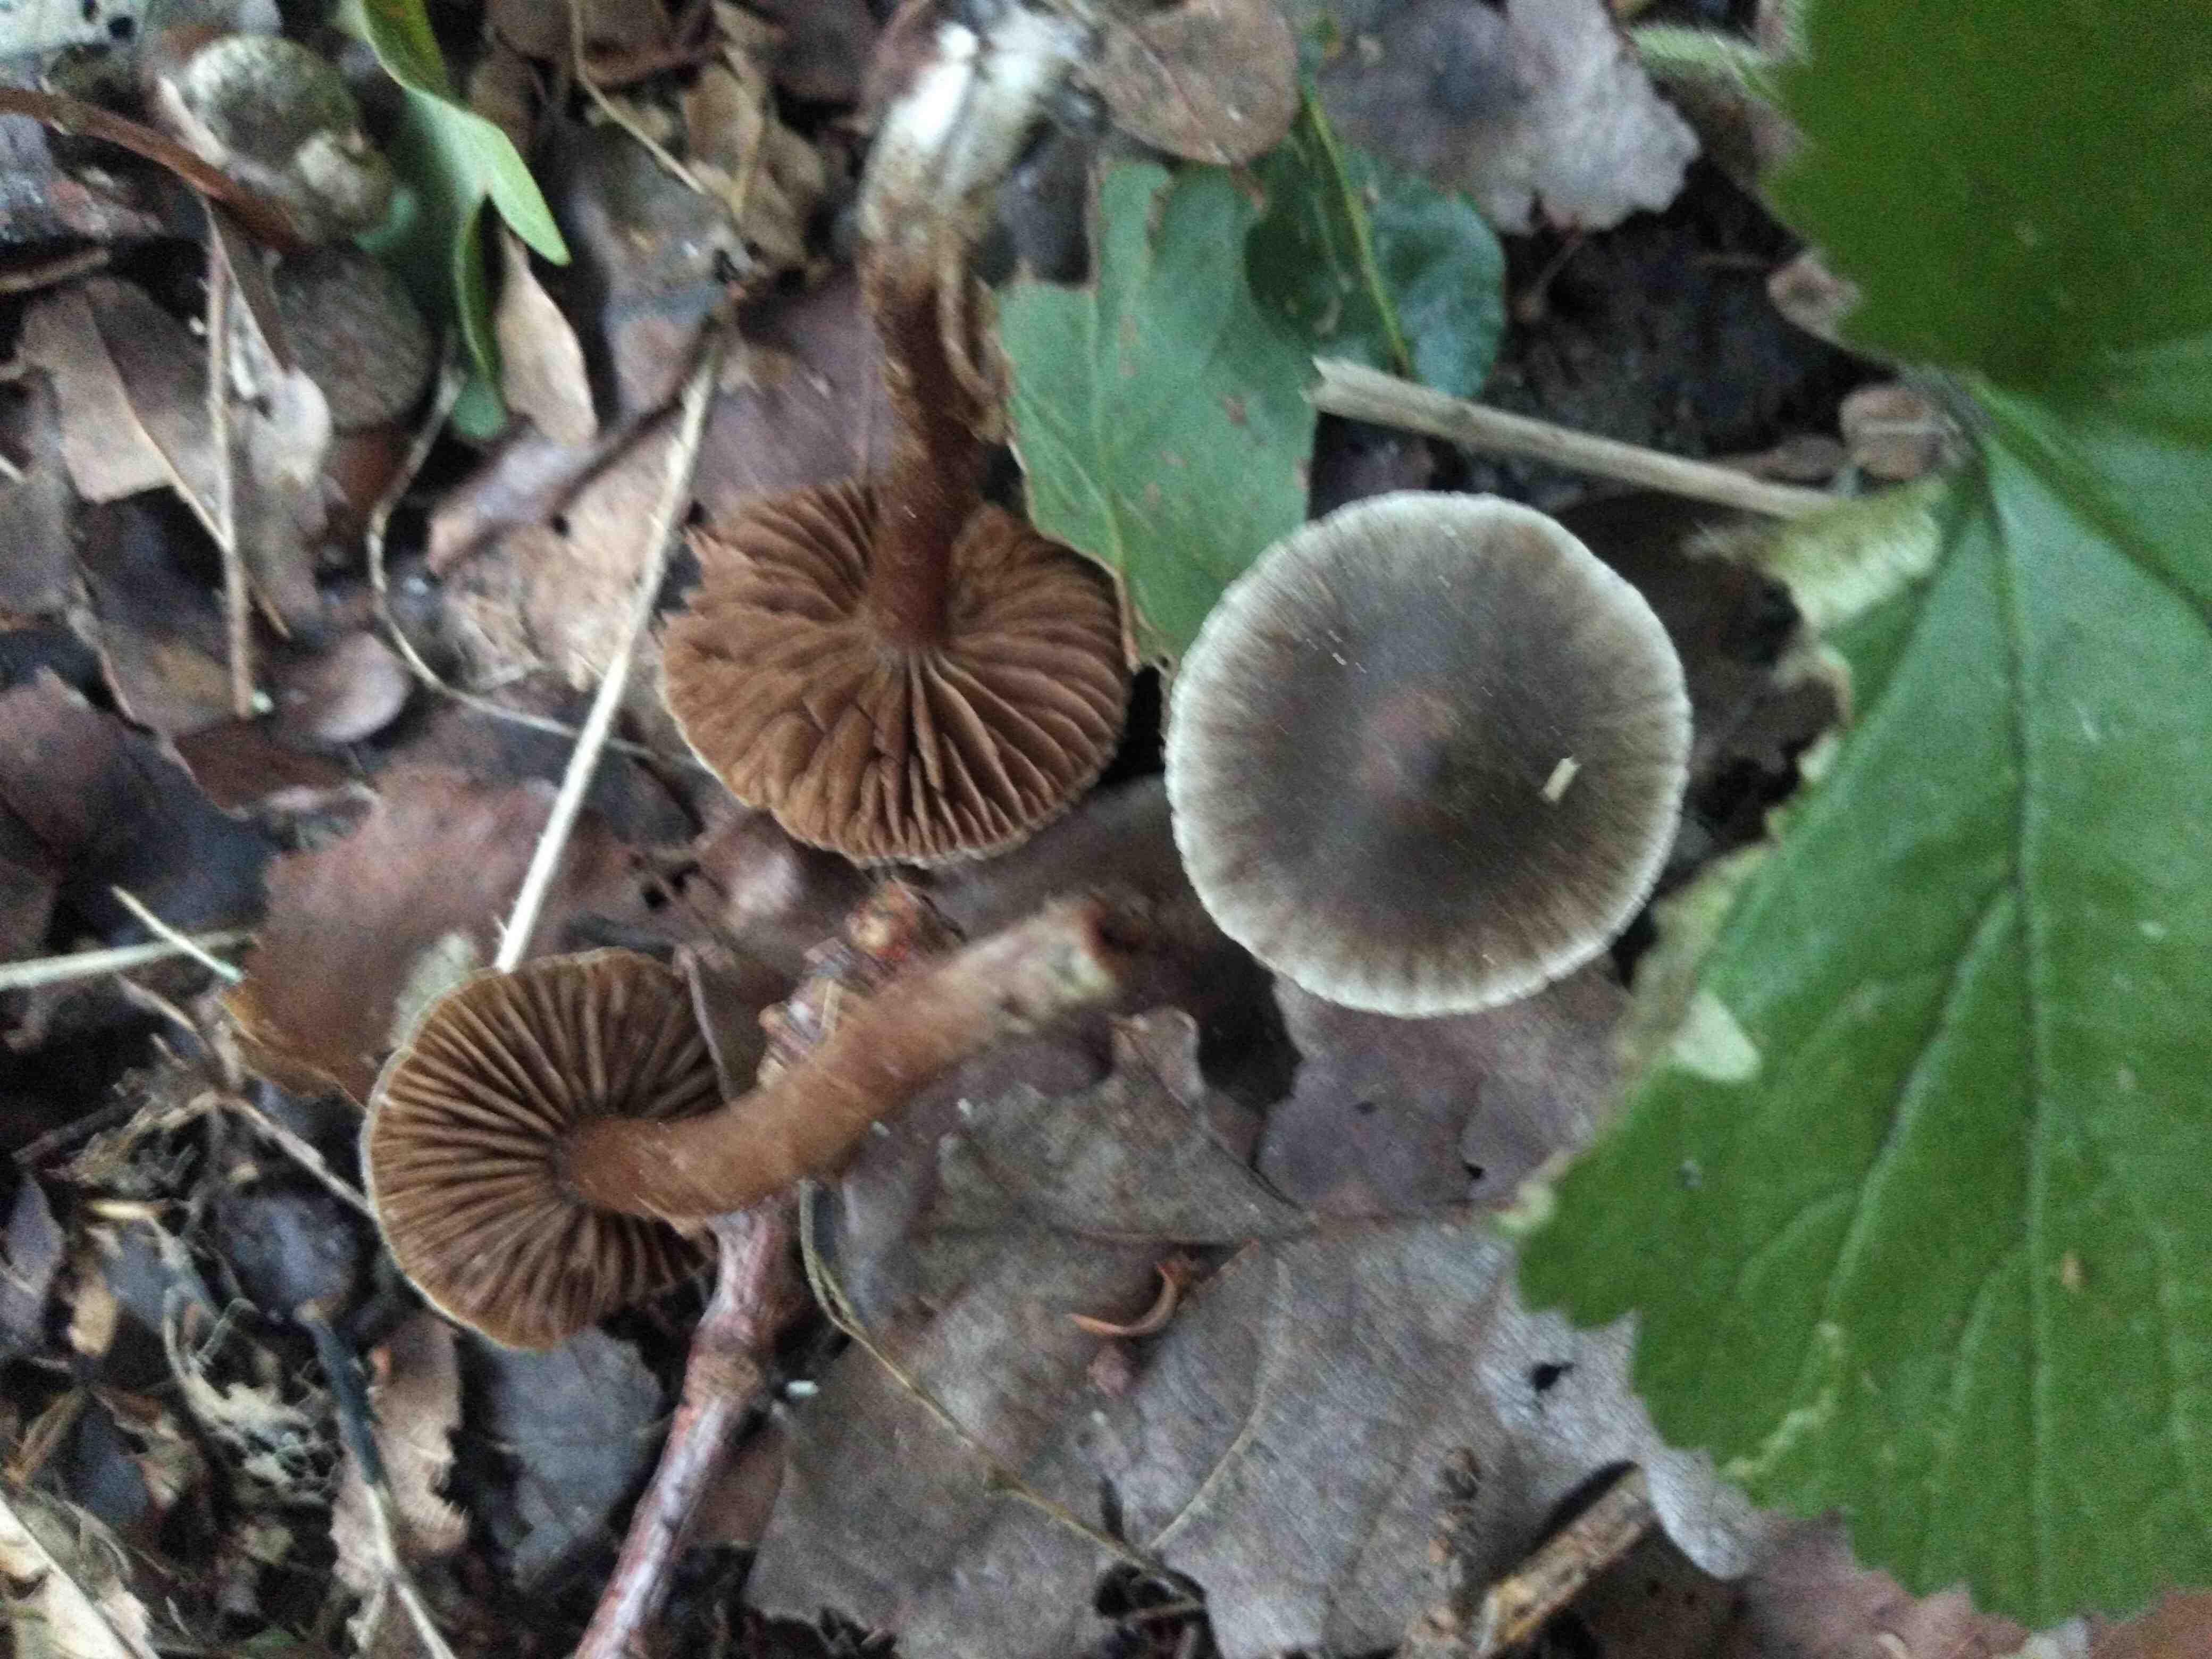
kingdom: Fungi
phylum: Basidiomycota
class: Agaricomycetes
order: Agaricales
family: Cortinariaceae
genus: Cortinarius
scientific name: Cortinarius
